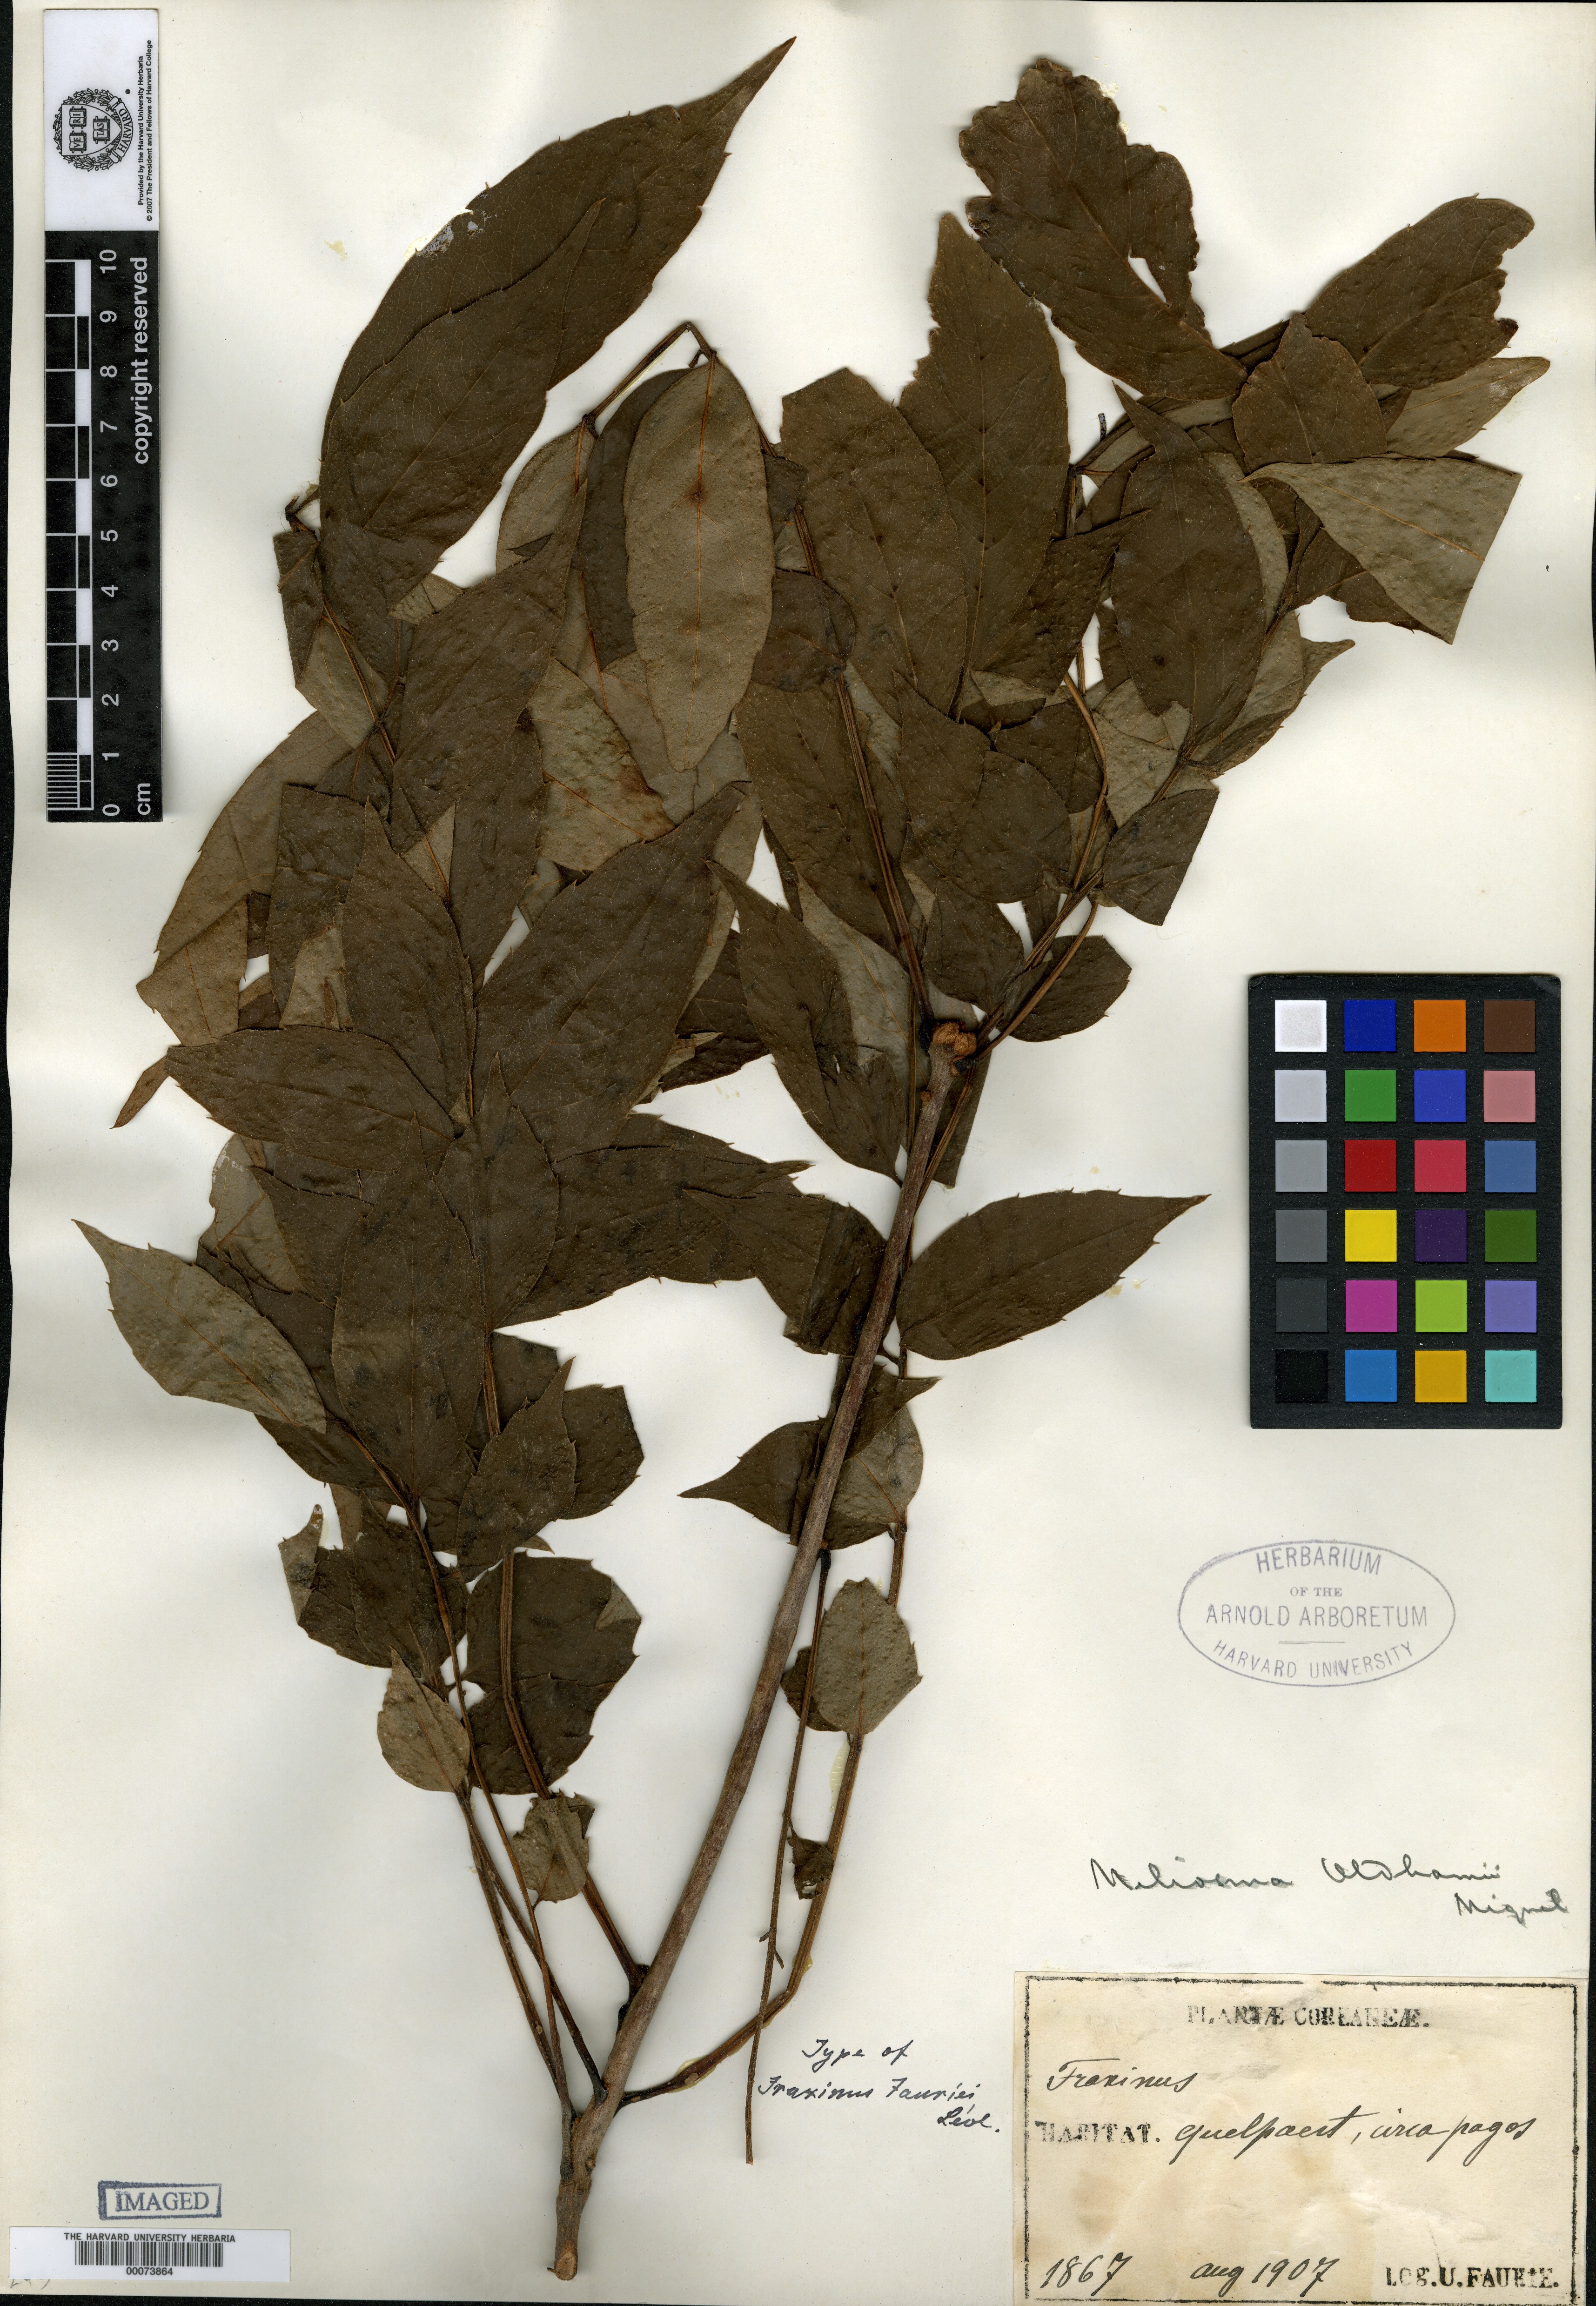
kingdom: Plantae
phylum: Tracheophyta
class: Magnoliopsida
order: Proteales
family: Sabiaceae
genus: Meliosma
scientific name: Meliosma oldhamii
